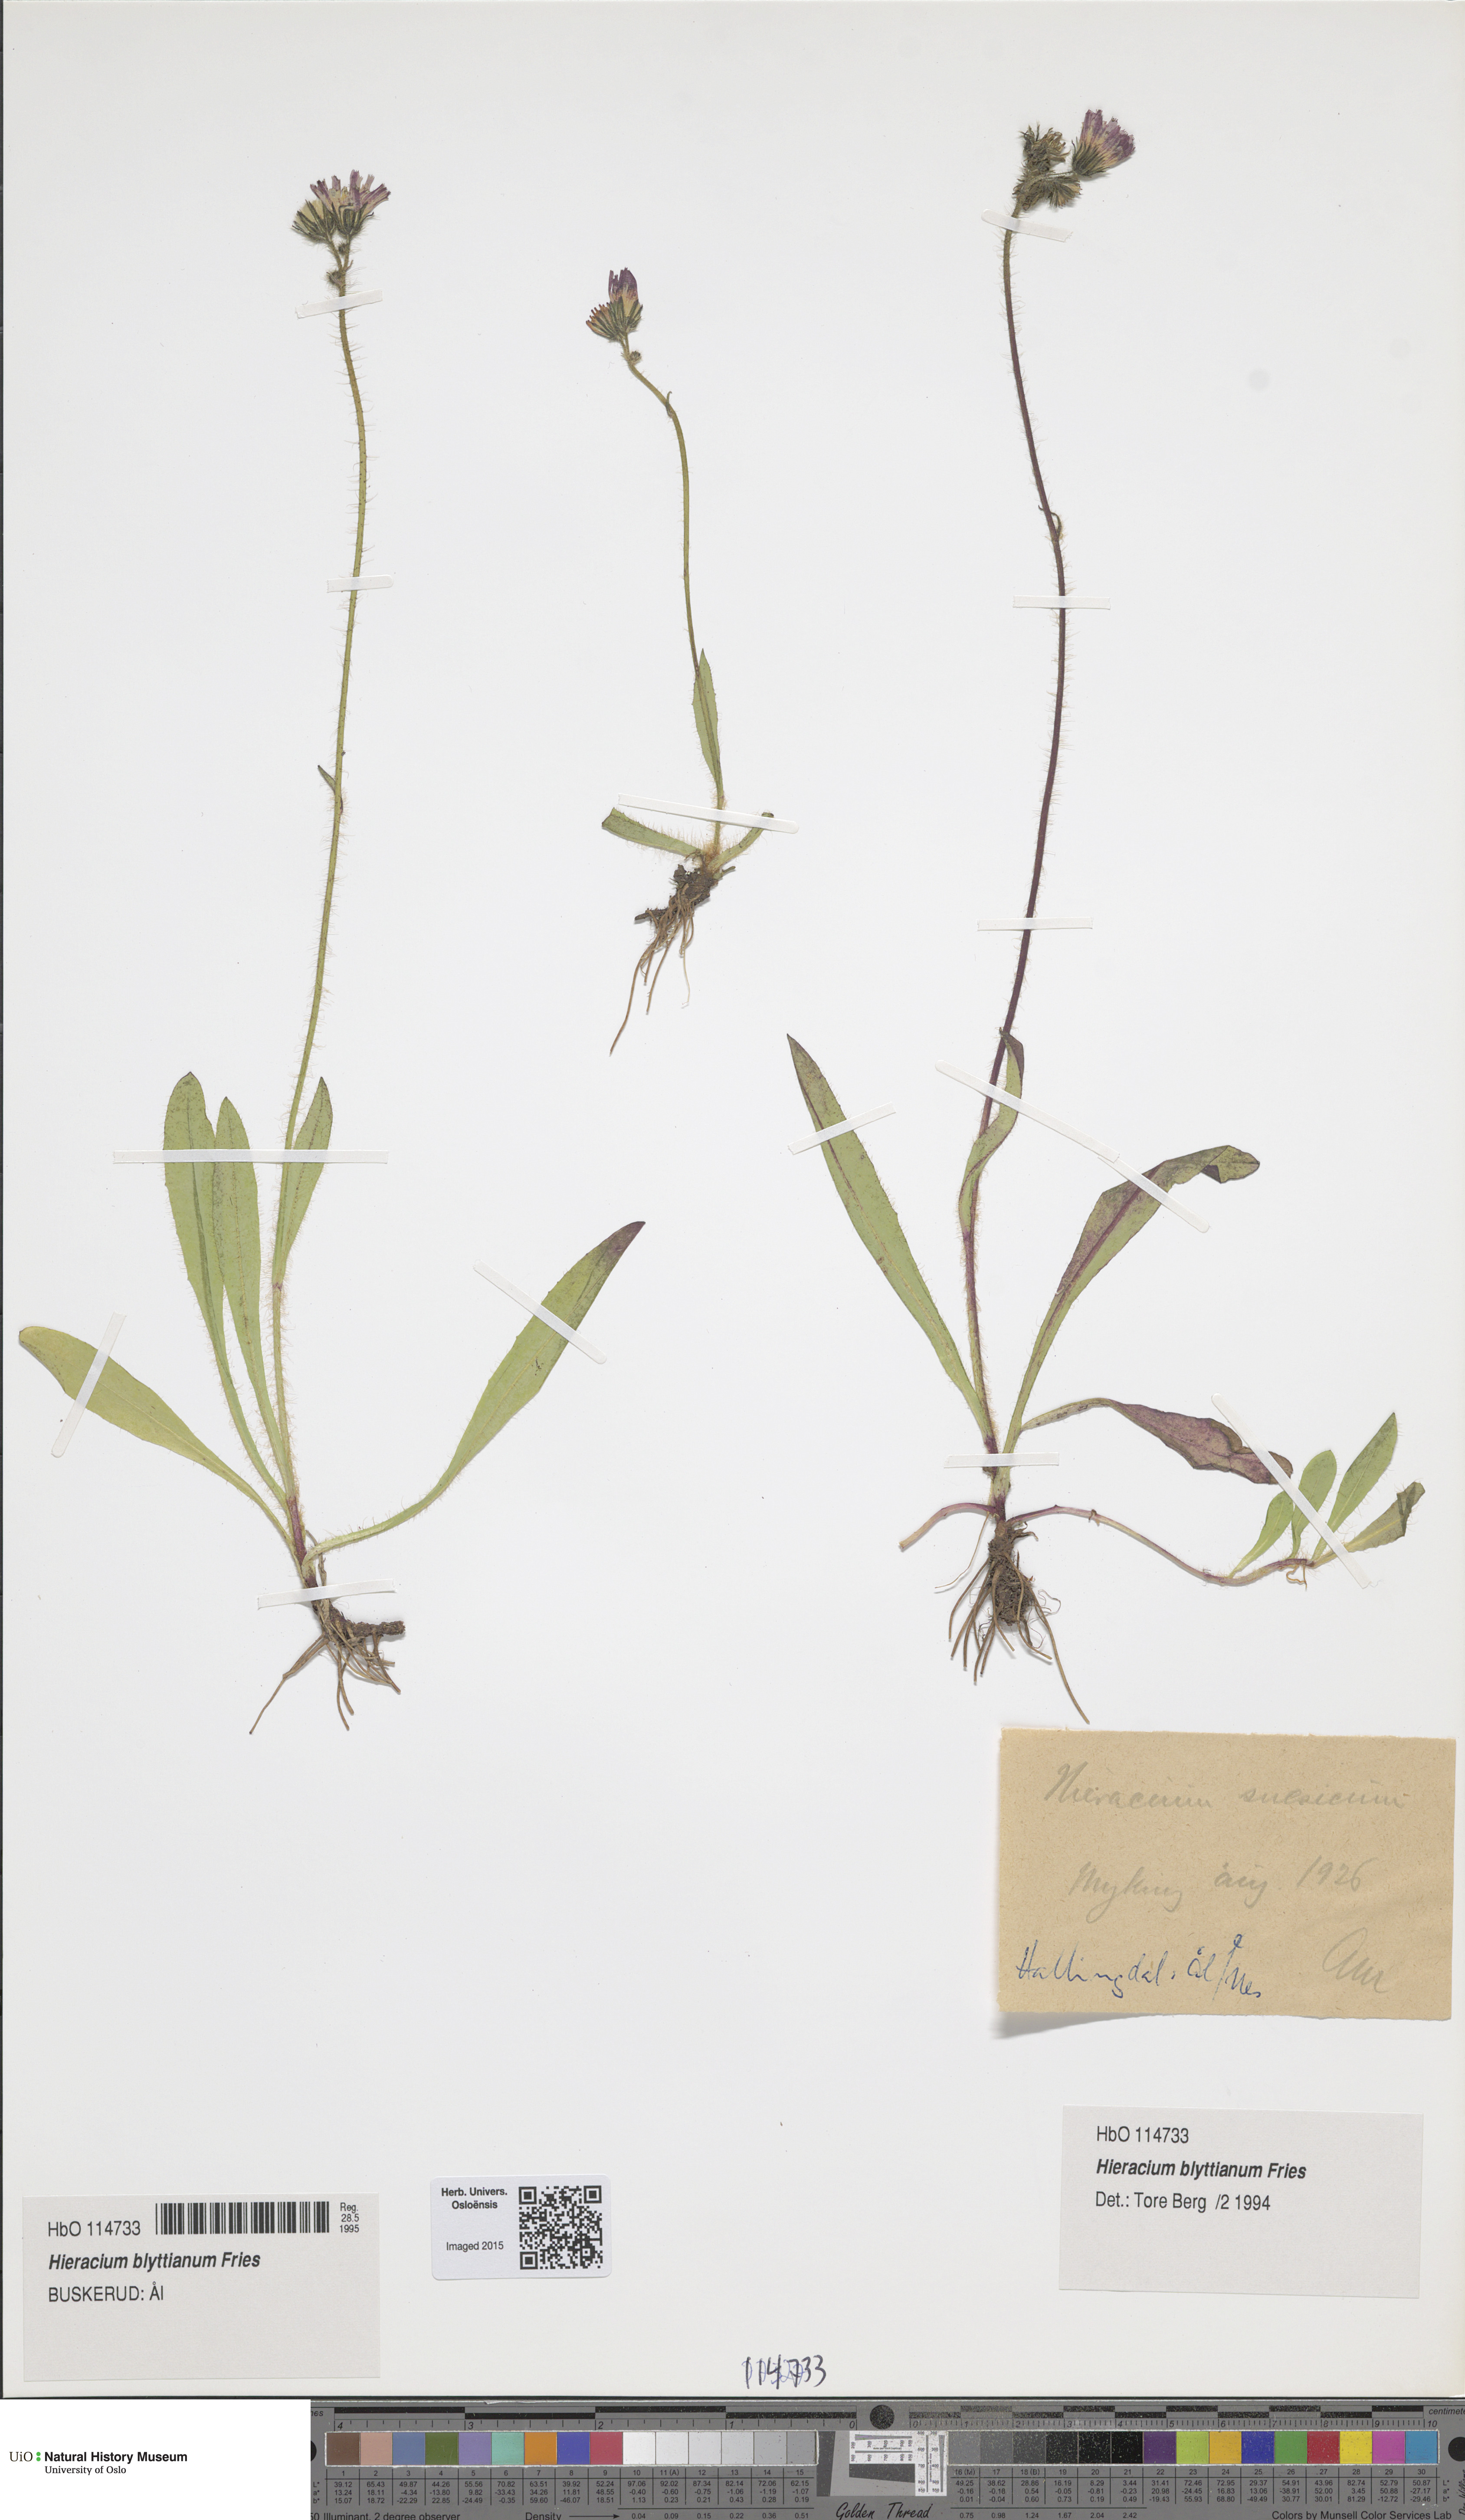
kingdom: Plantae
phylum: Tracheophyta
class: Magnoliopsida
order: Asterales
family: Asteraceae
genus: Pilosella
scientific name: Pilosella blyttiana
